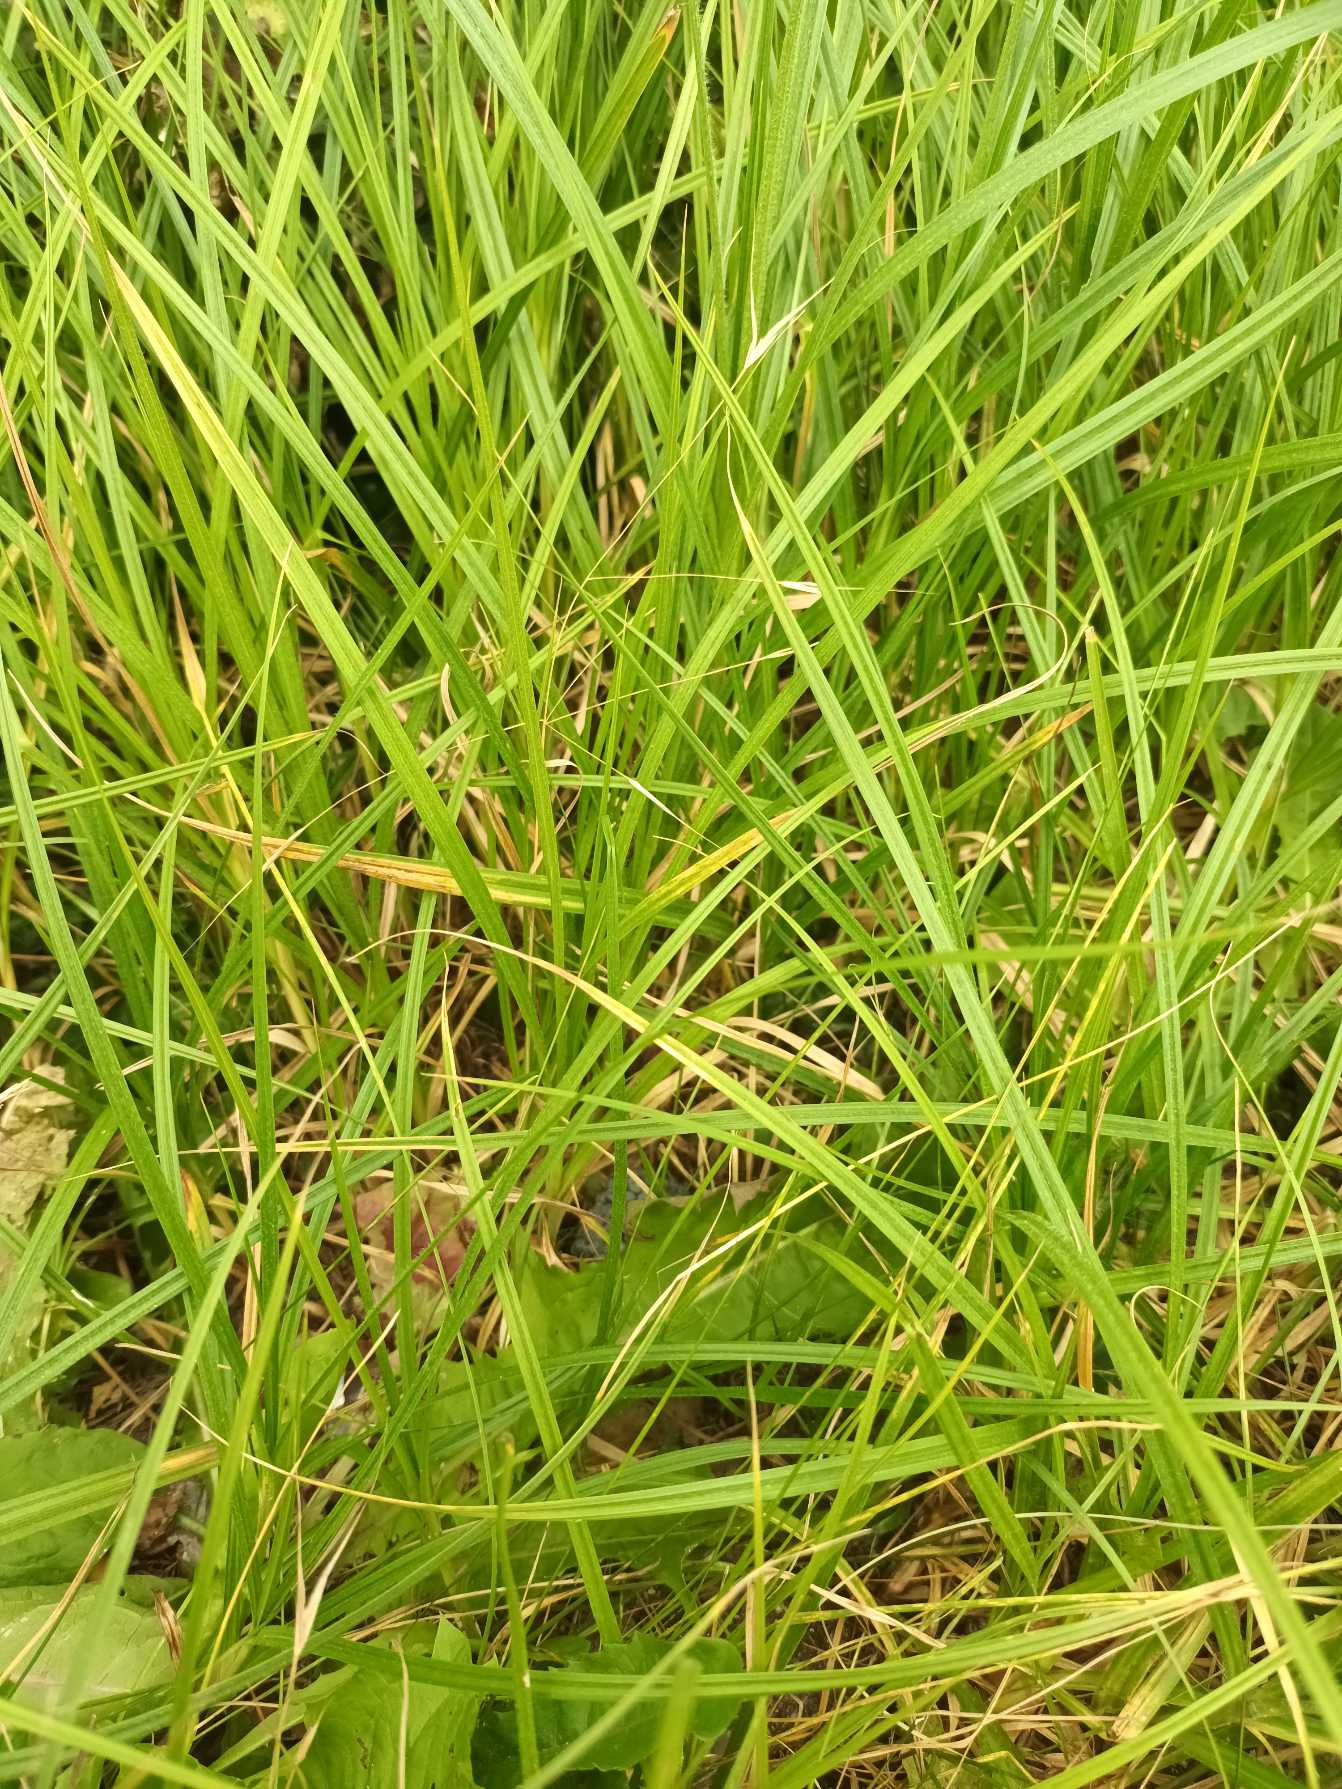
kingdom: Plantae
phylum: Tracheophyta
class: Liliopsida
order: Poales
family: Cyperaceae
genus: Carex
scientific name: Carex hirta
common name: Håret star
